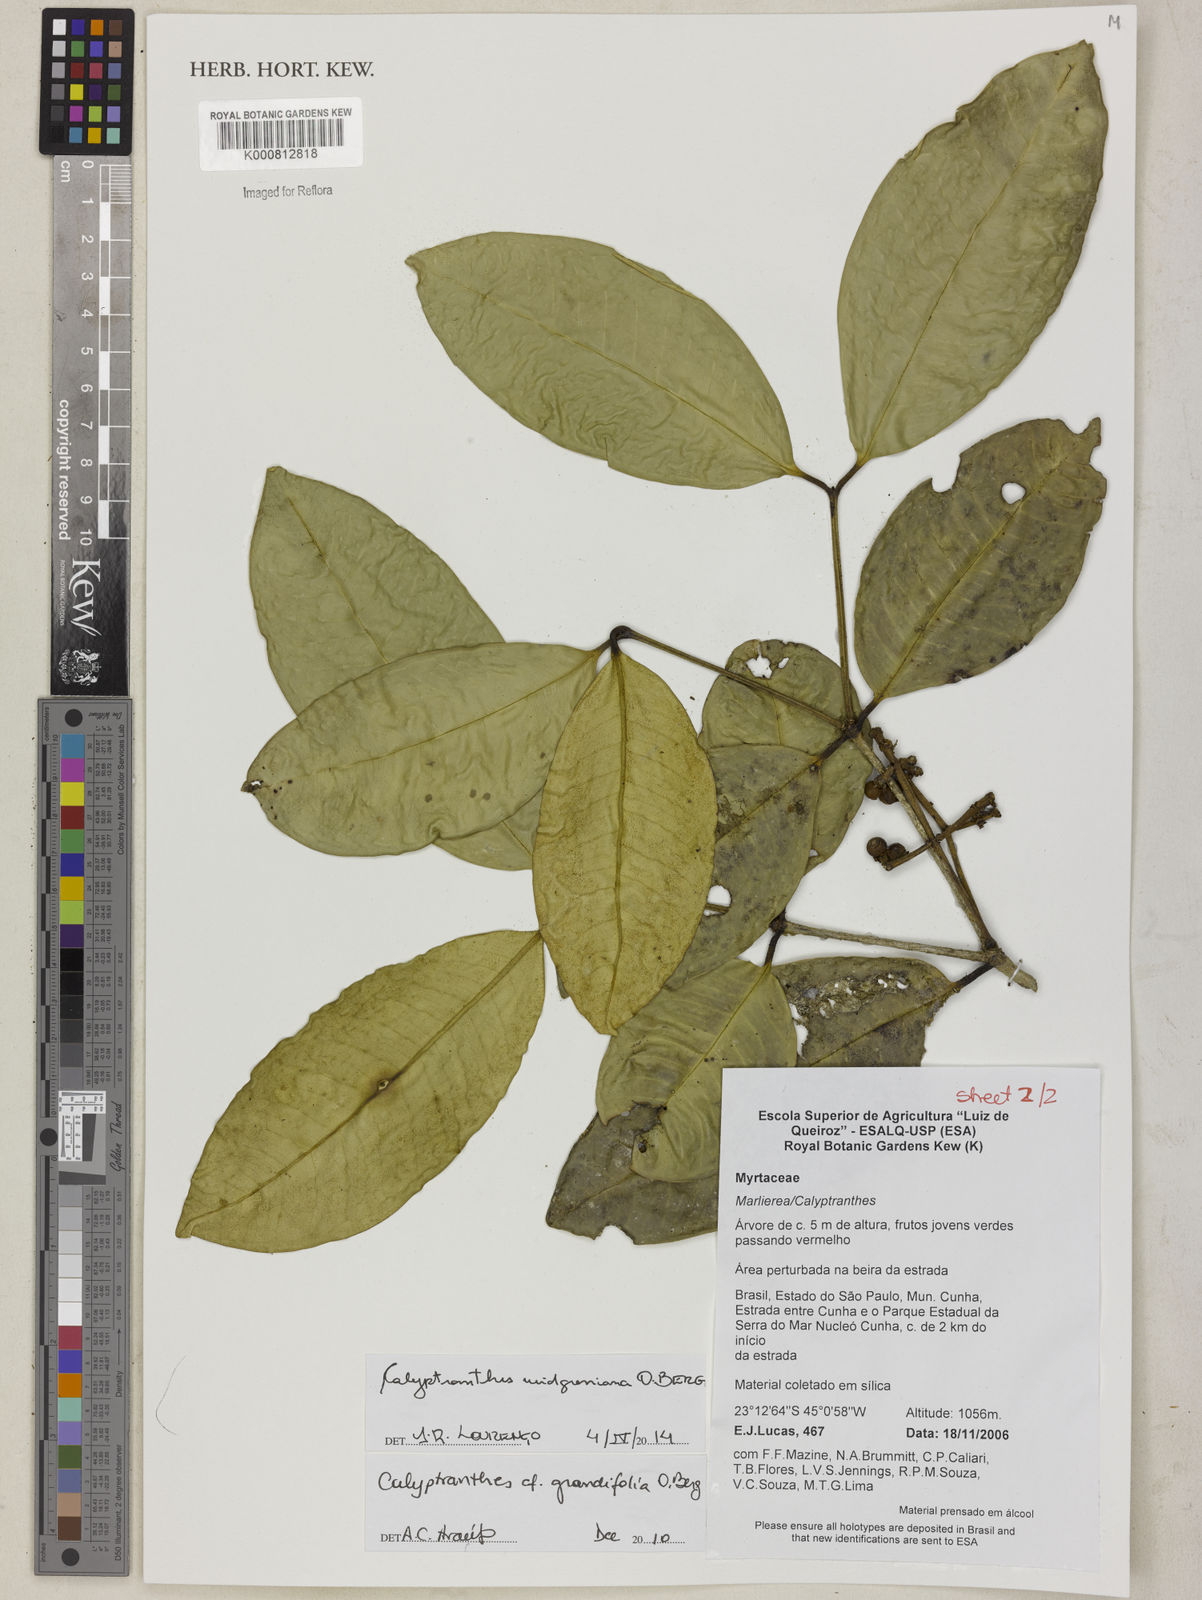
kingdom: Plantae
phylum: Tracheophyta
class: Magnoliopsida
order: Myrtales
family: Myrtaceae
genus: Calyptranthes
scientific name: Calyptranthes widgreniana
